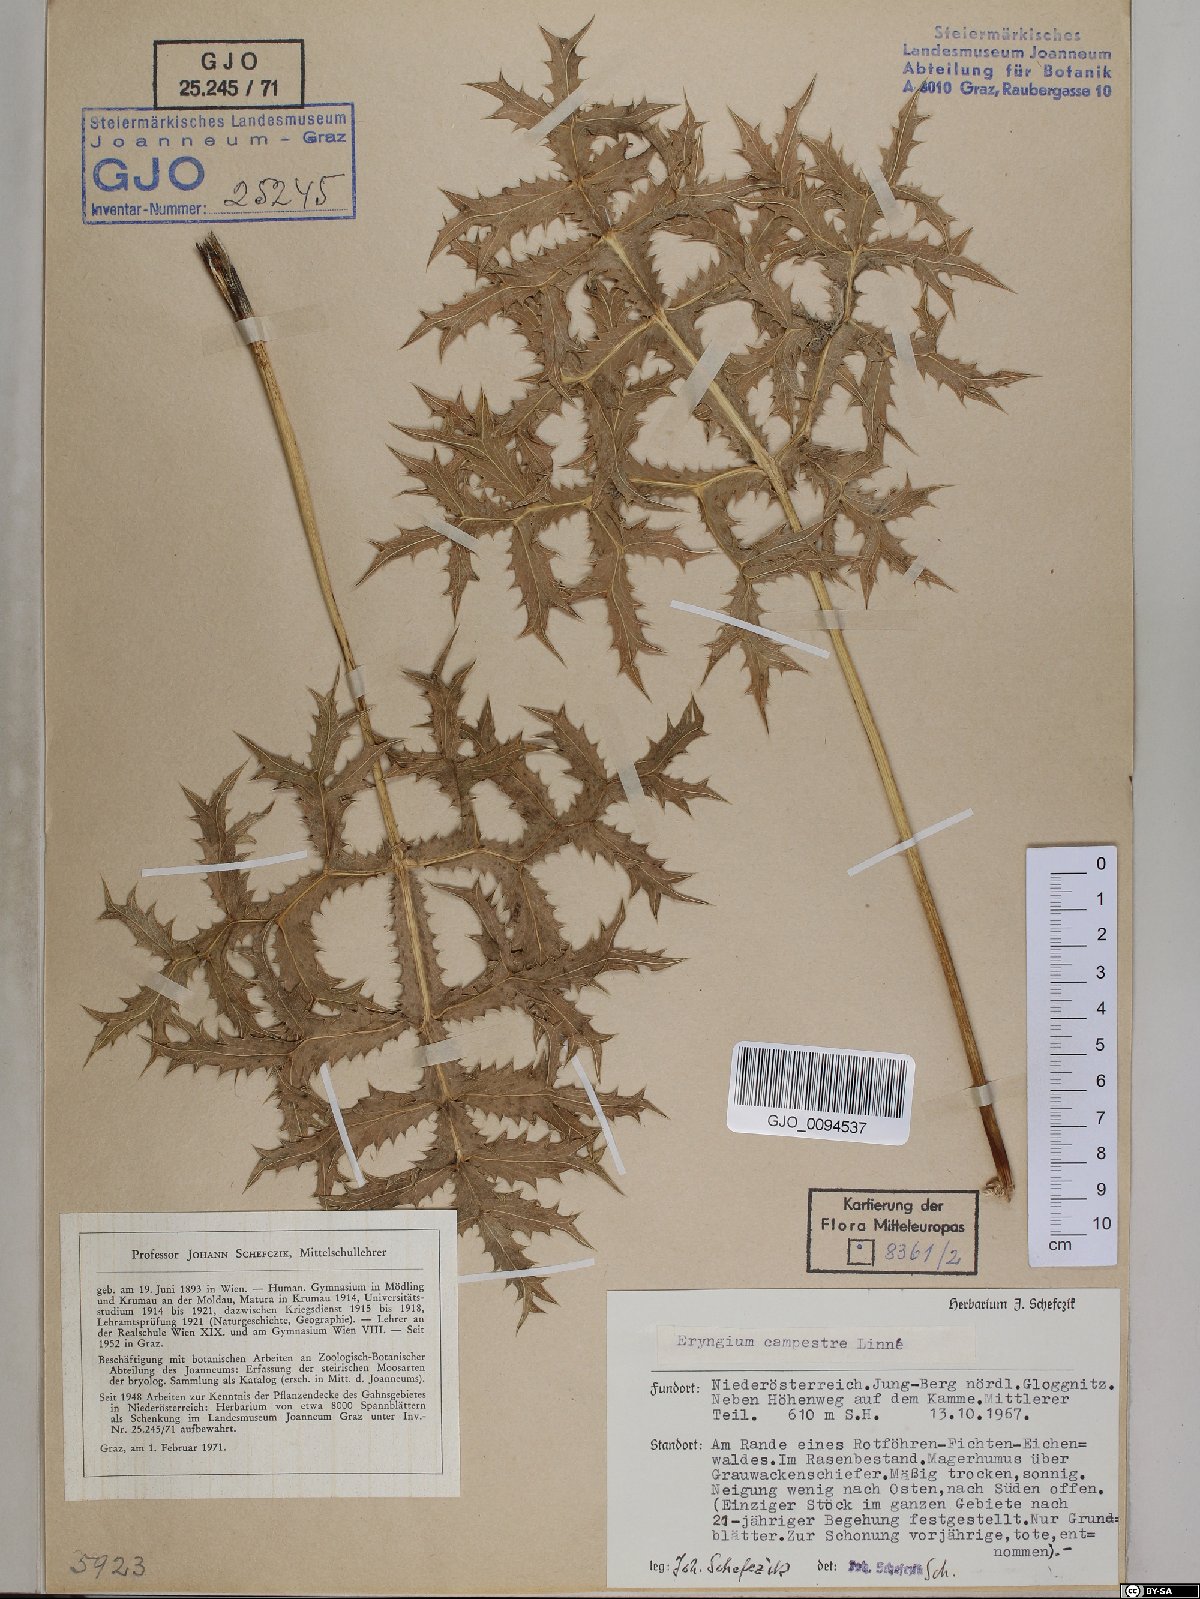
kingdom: Plantae
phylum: Tracheophyta
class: Magnoliopsida
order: Apiales
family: Apiaceae
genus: Eryngium
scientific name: Eryngium campestre
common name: Field eryngo
